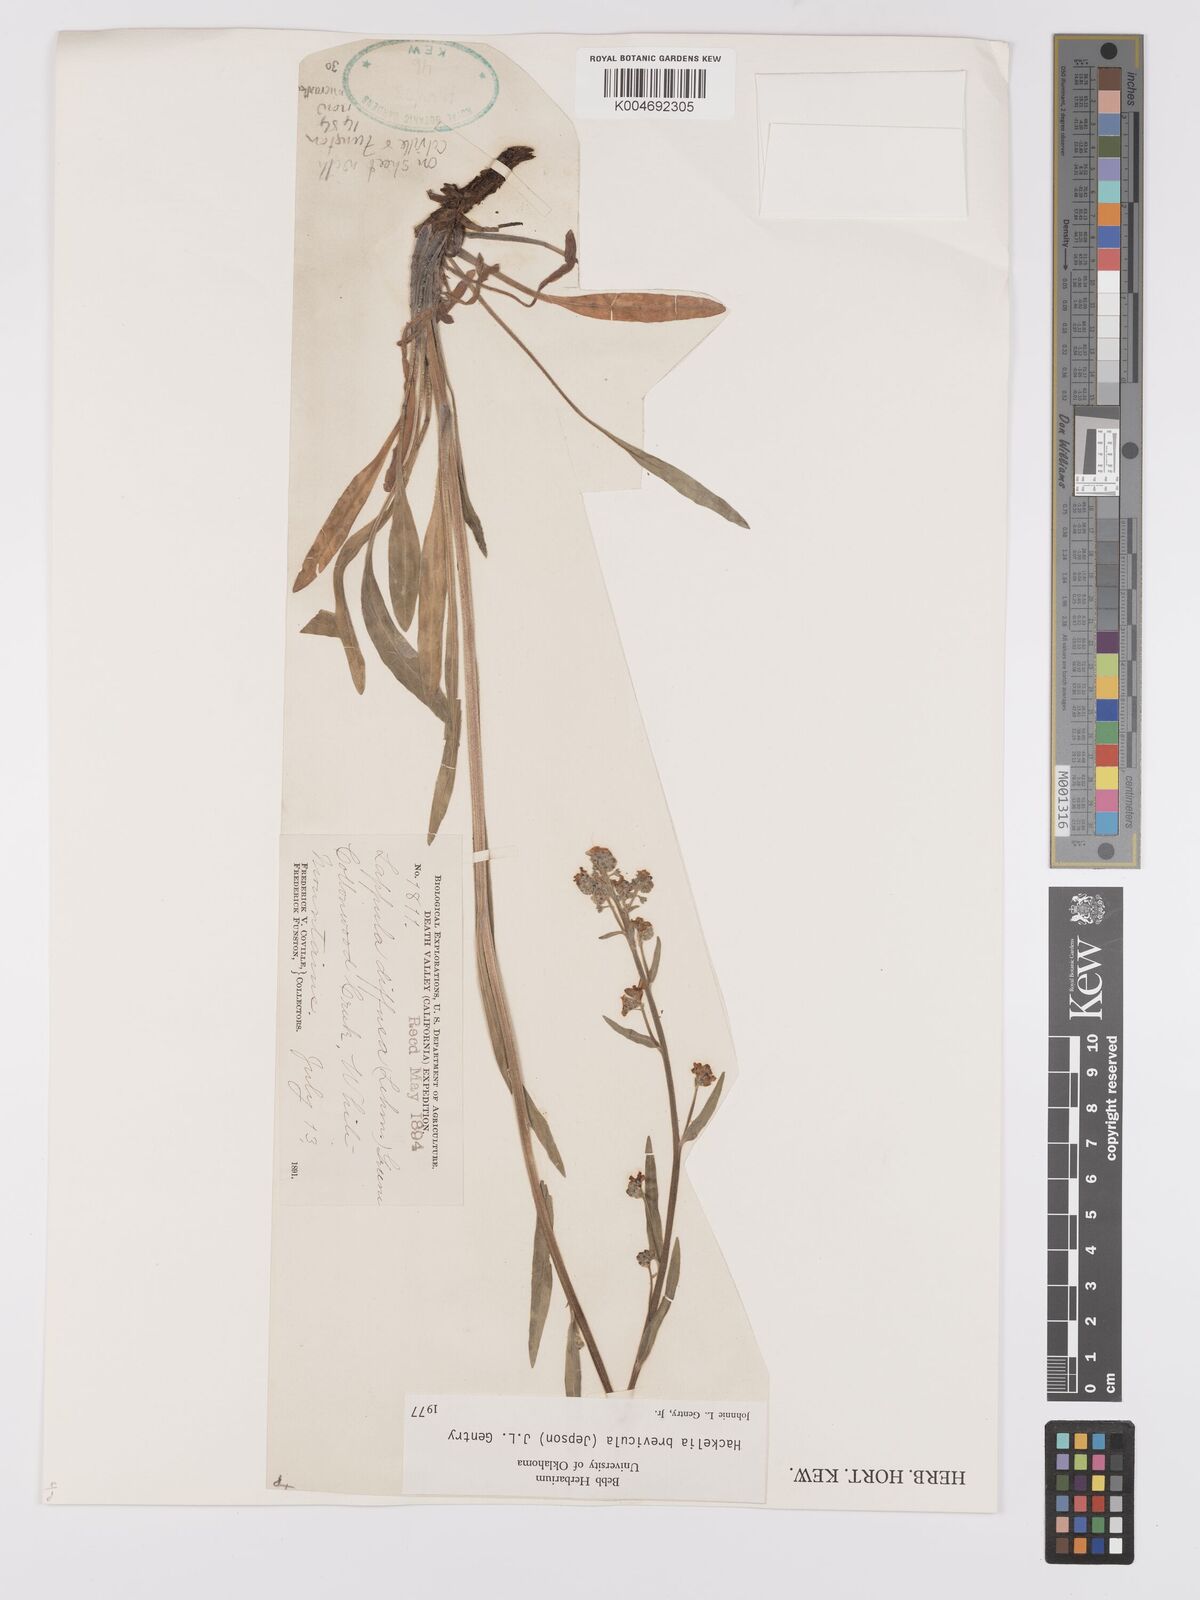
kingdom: Plantae
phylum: Tracheophyta
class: Magnoliopsida
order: Boraginales
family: Boraginaceae
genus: Hackelia
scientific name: Hackelia brevicula
